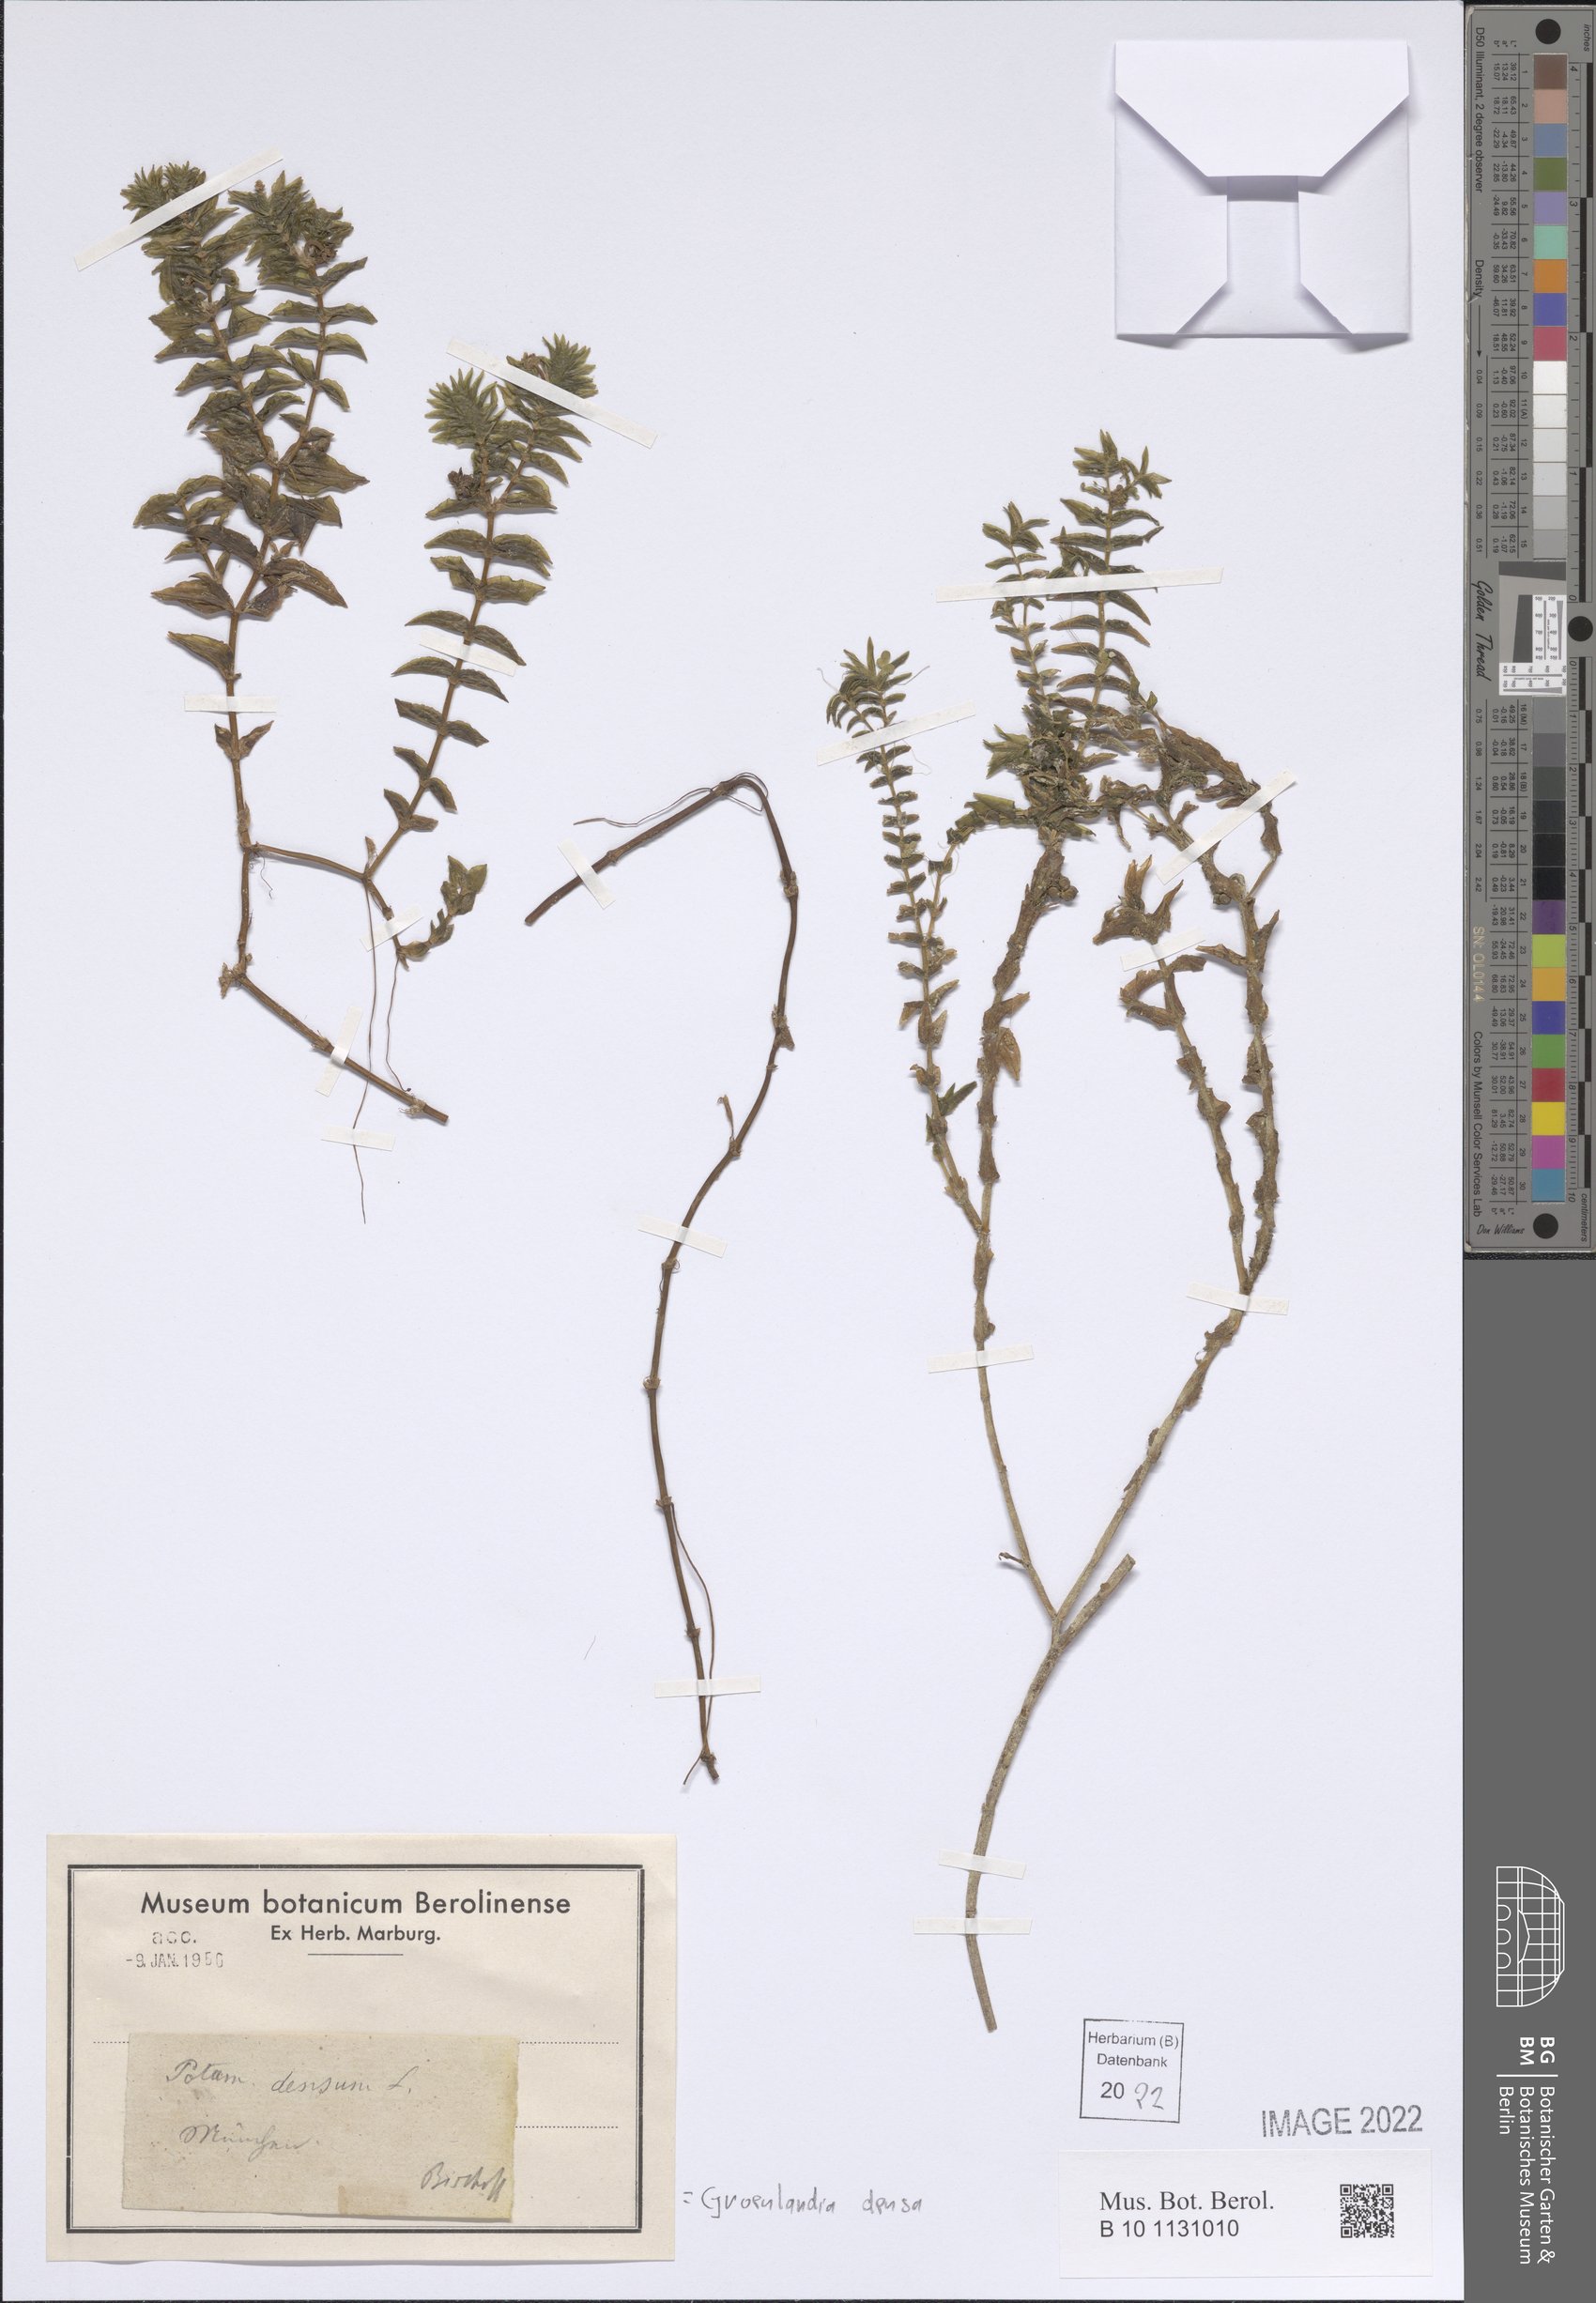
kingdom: Plantae
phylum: Tracheophyta
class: Liliopsida
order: Alismatales
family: Potamogetonaceae
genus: Groenlandia
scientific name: Groenlandia densa
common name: Opposite-leaved pondweed
